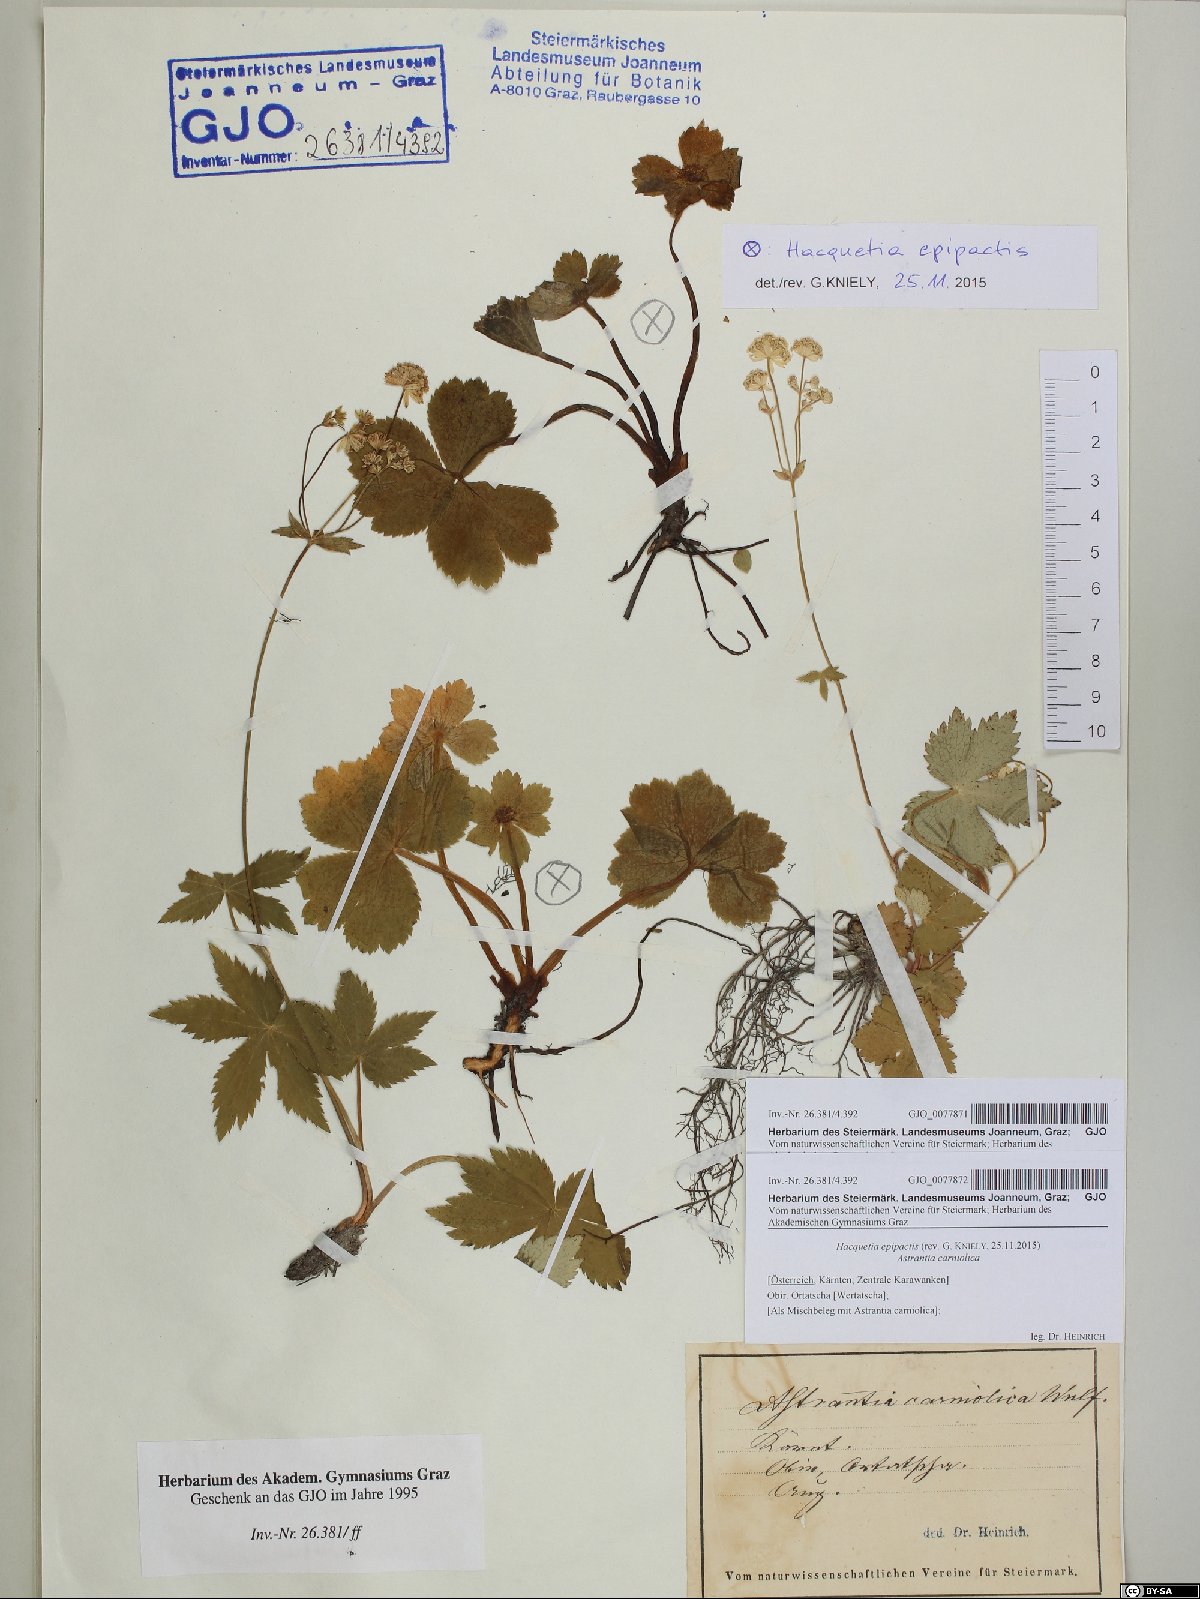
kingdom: Plantae
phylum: Tracheophyta
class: Magnoliopsida
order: Apiales
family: Apiaceae
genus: Astrantia
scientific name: Astrantia carniolica
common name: Carnic masterwort
